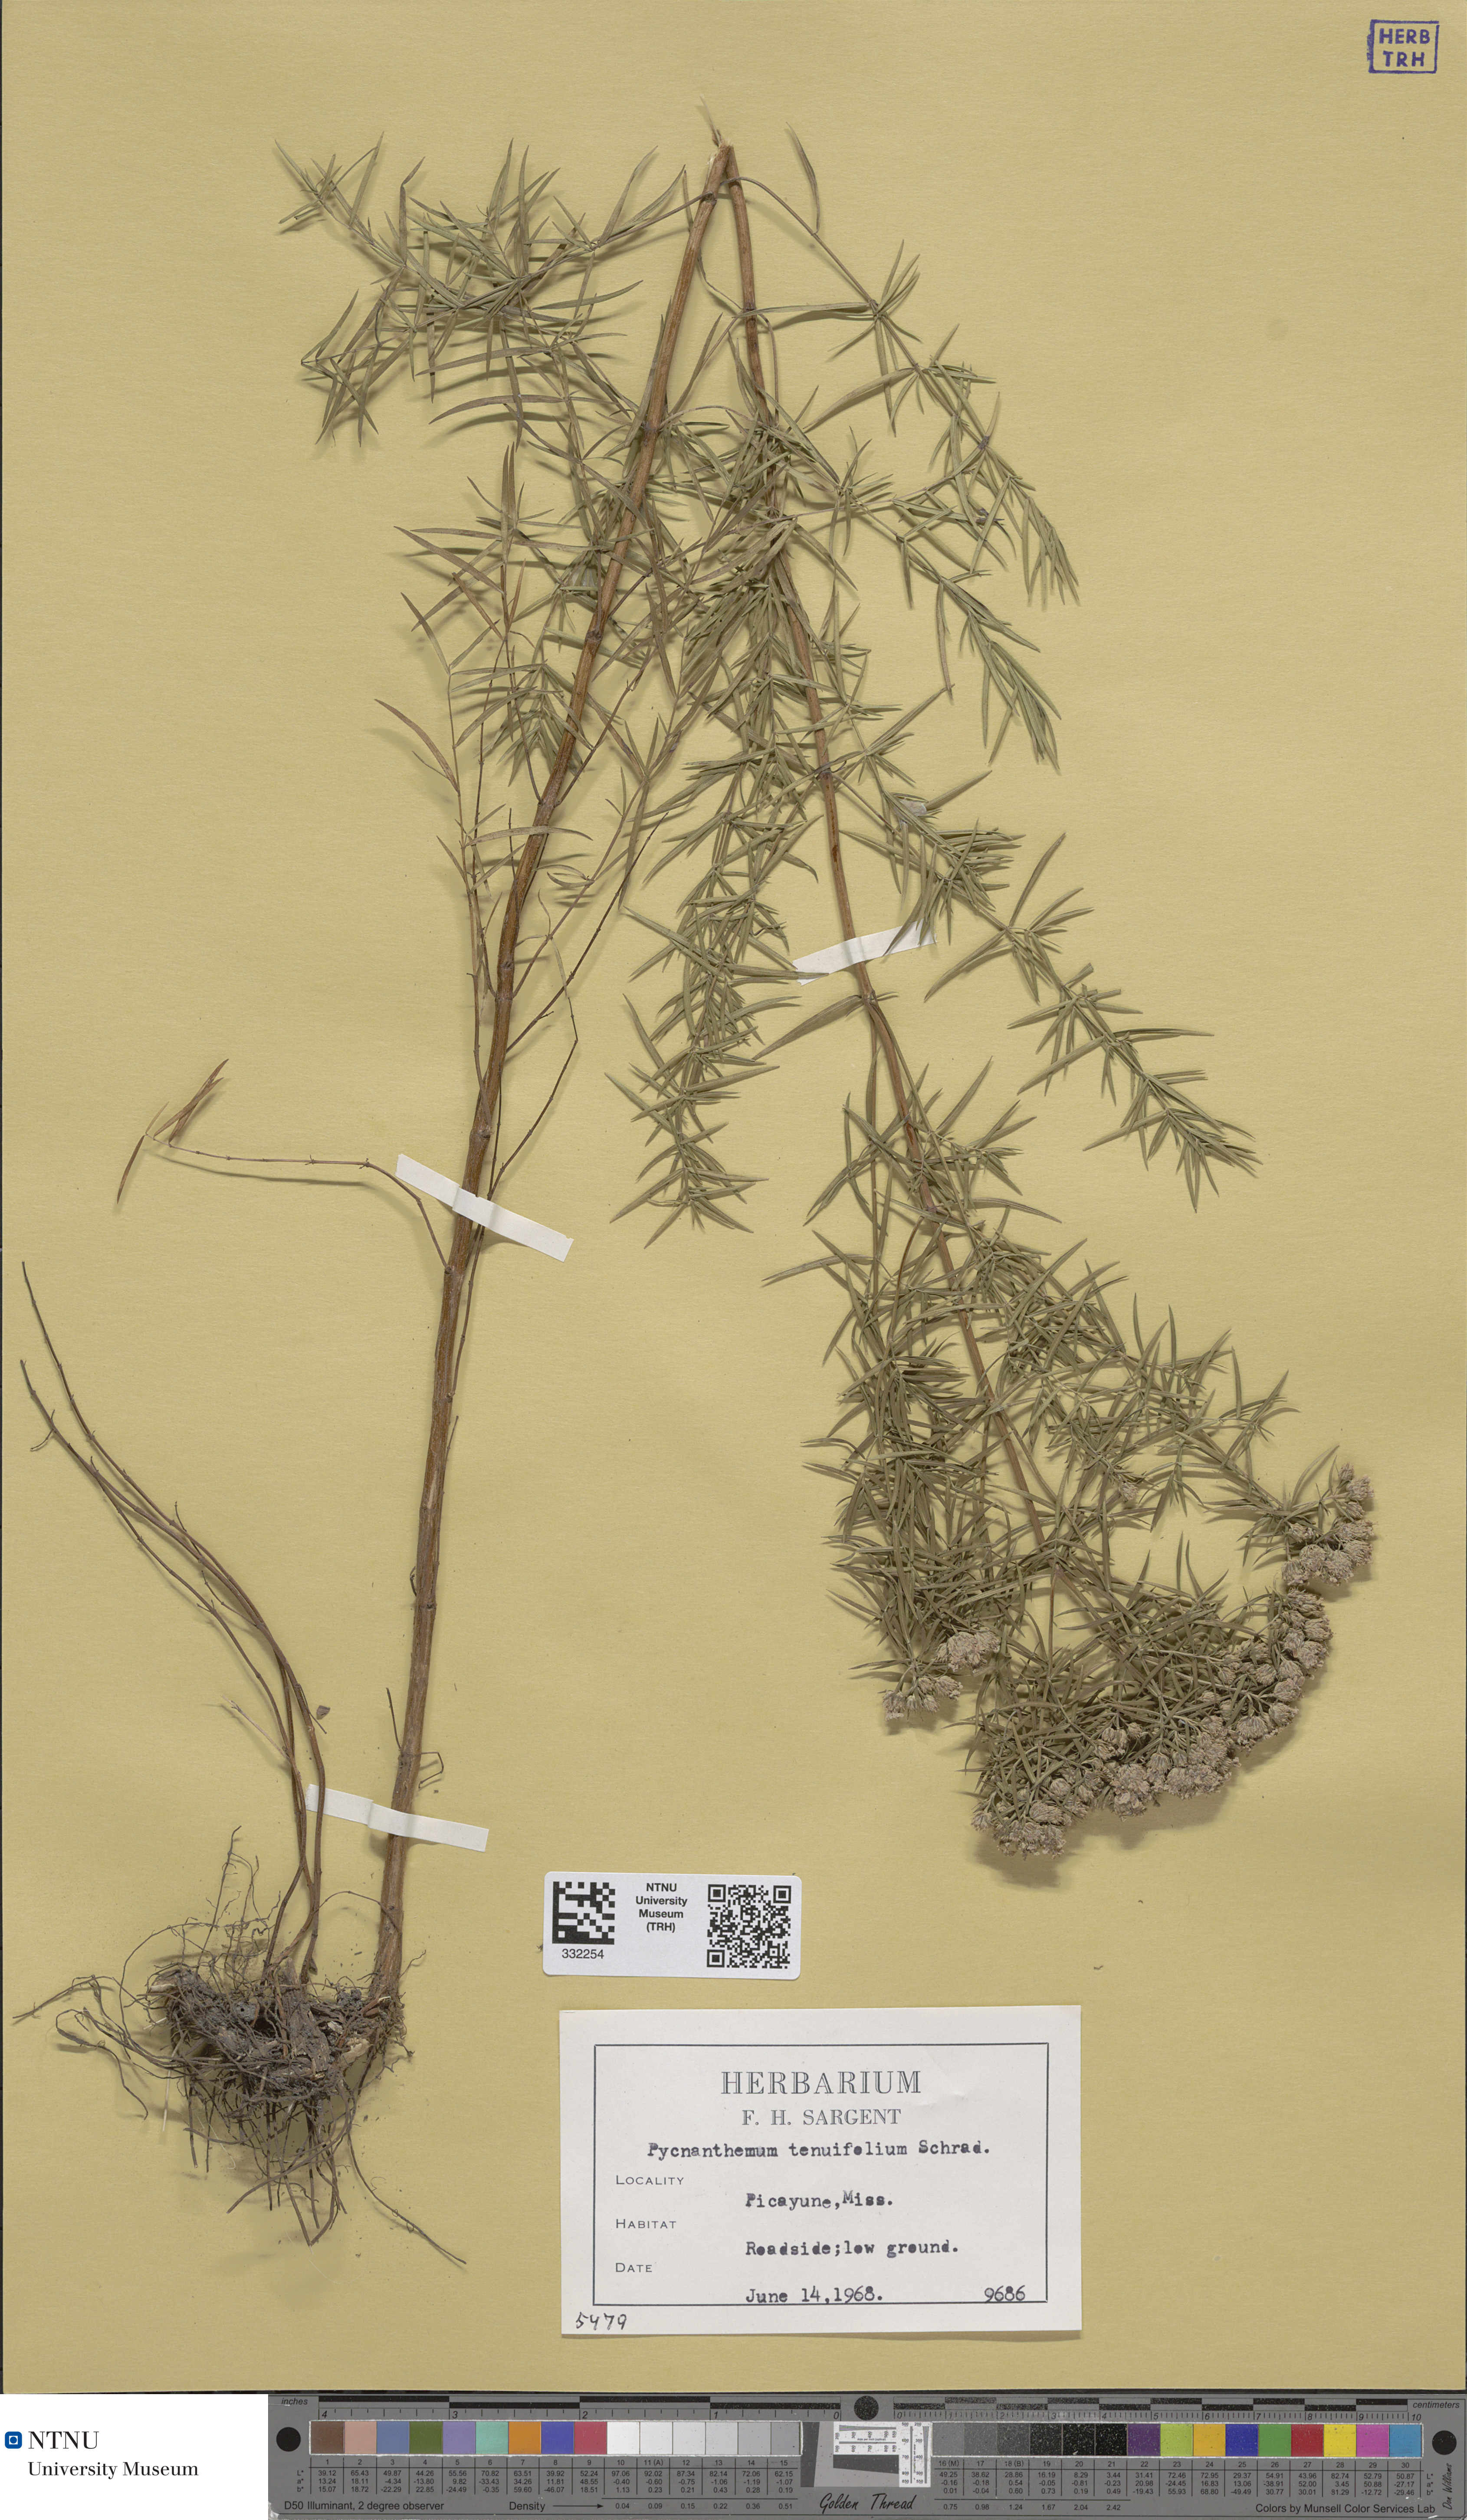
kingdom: Plantae
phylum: Tracheophyta
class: Magnoliopsida
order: Lamiales
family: Lamiaceae
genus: Pycnanthemum
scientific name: Pycnanthemum tenuifolium
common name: Narrow-leaf mountain-mint
